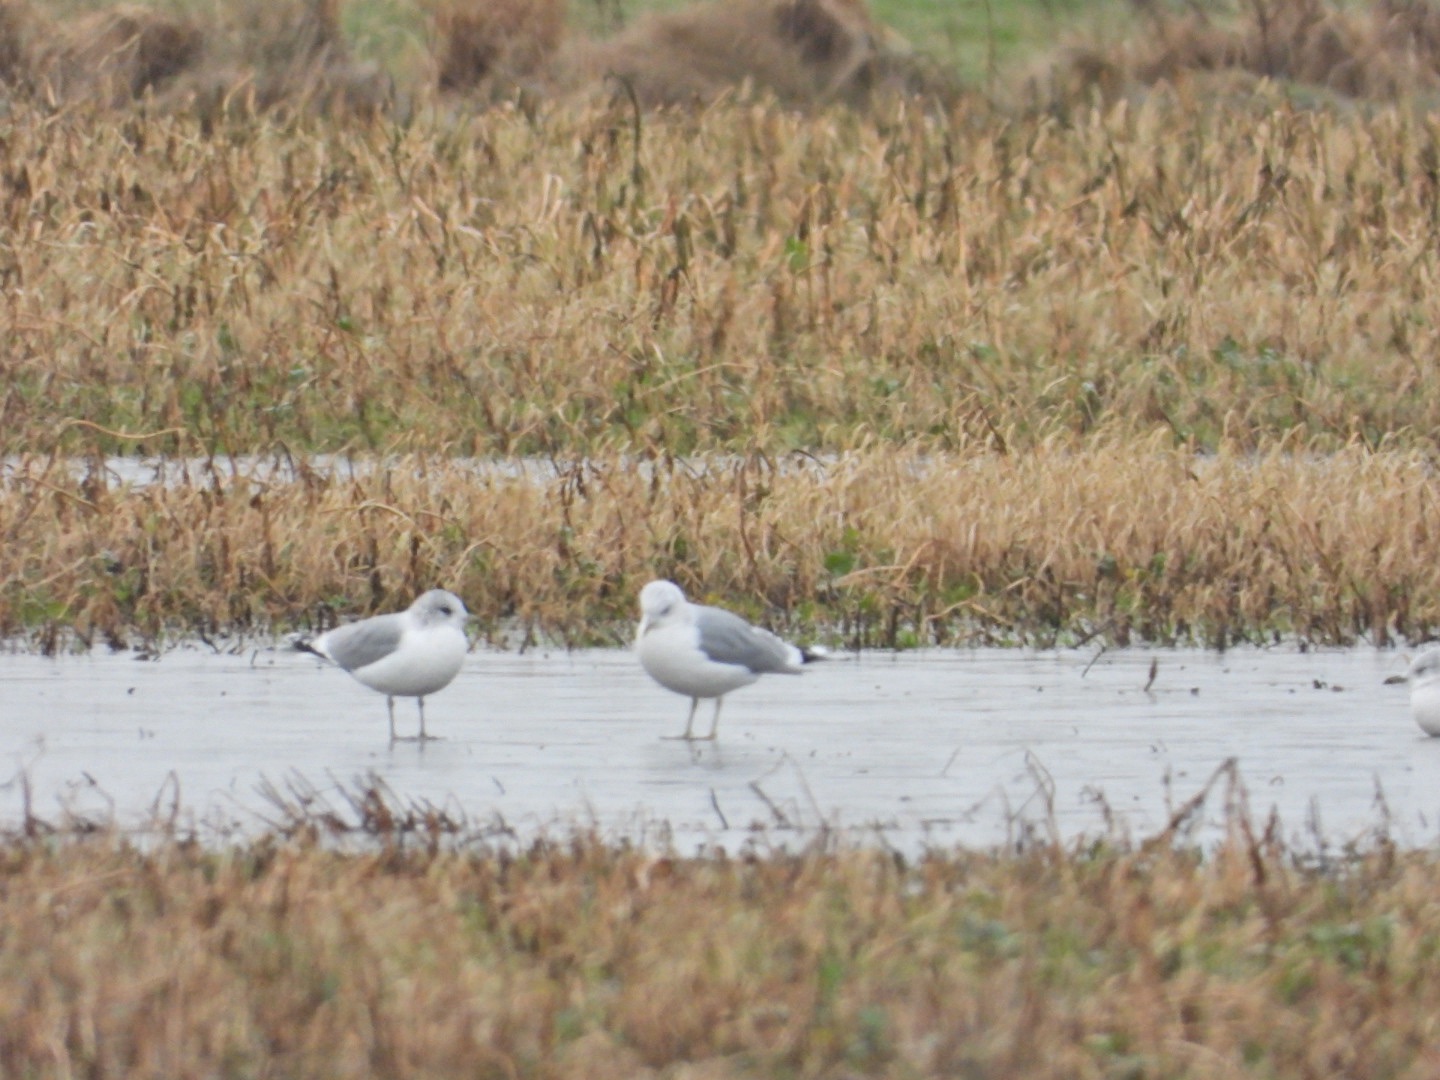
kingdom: Animalia
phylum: Chordata
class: Aves
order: Charadriiformes
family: Laridae
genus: Larus
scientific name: Larus canus
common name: Stormmåge
